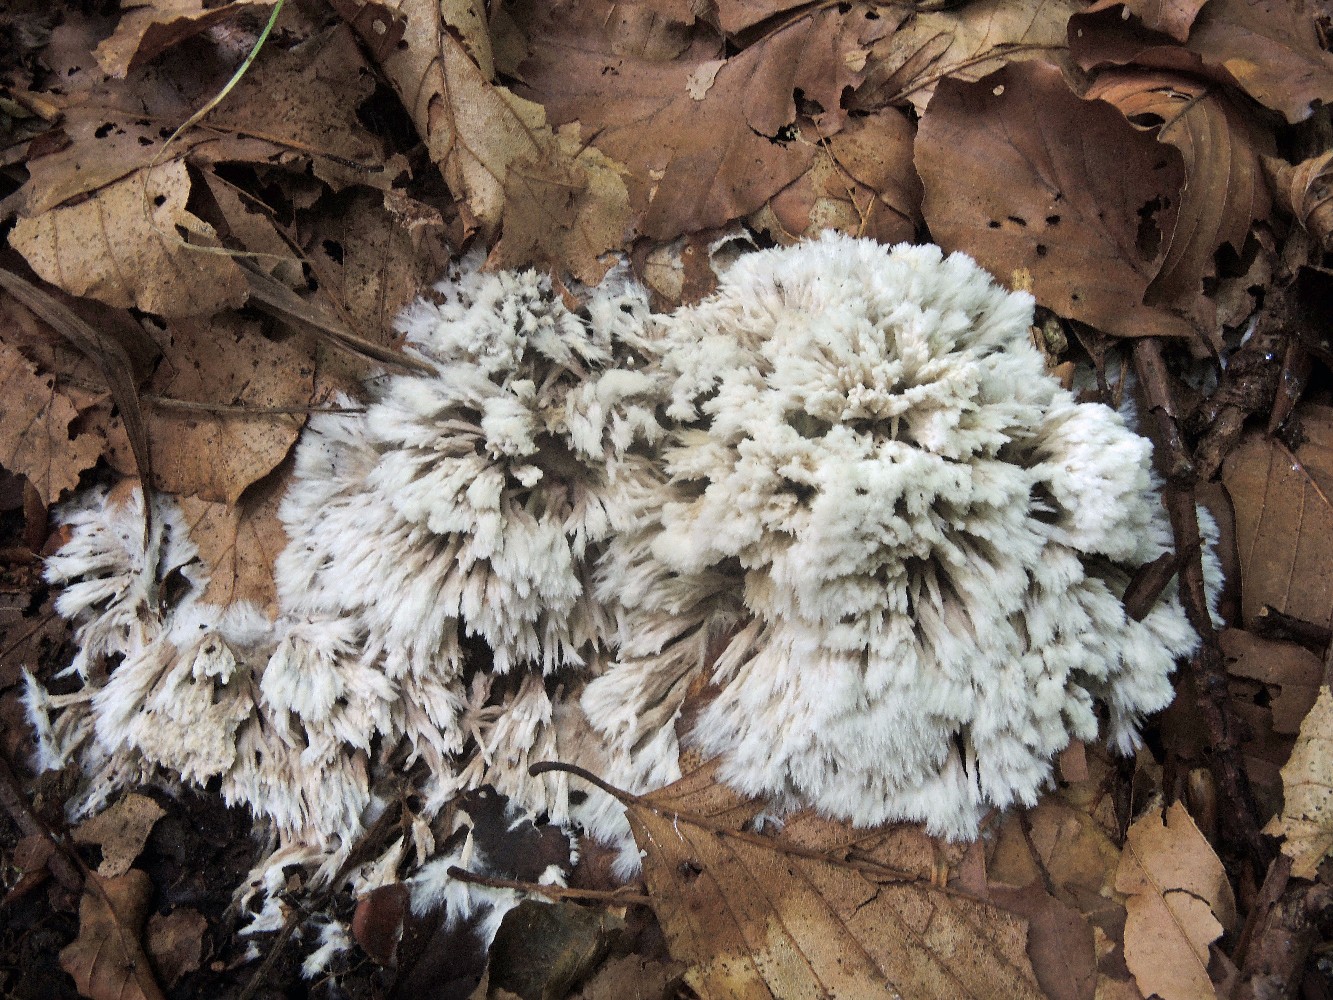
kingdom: Fungi
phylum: Basidiomycota
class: Agaricomycetes
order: Thelephorales
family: Thelephoraceae
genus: Thelephora
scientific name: Thelephora penicillata
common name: fladtrådt frynsesvamp
